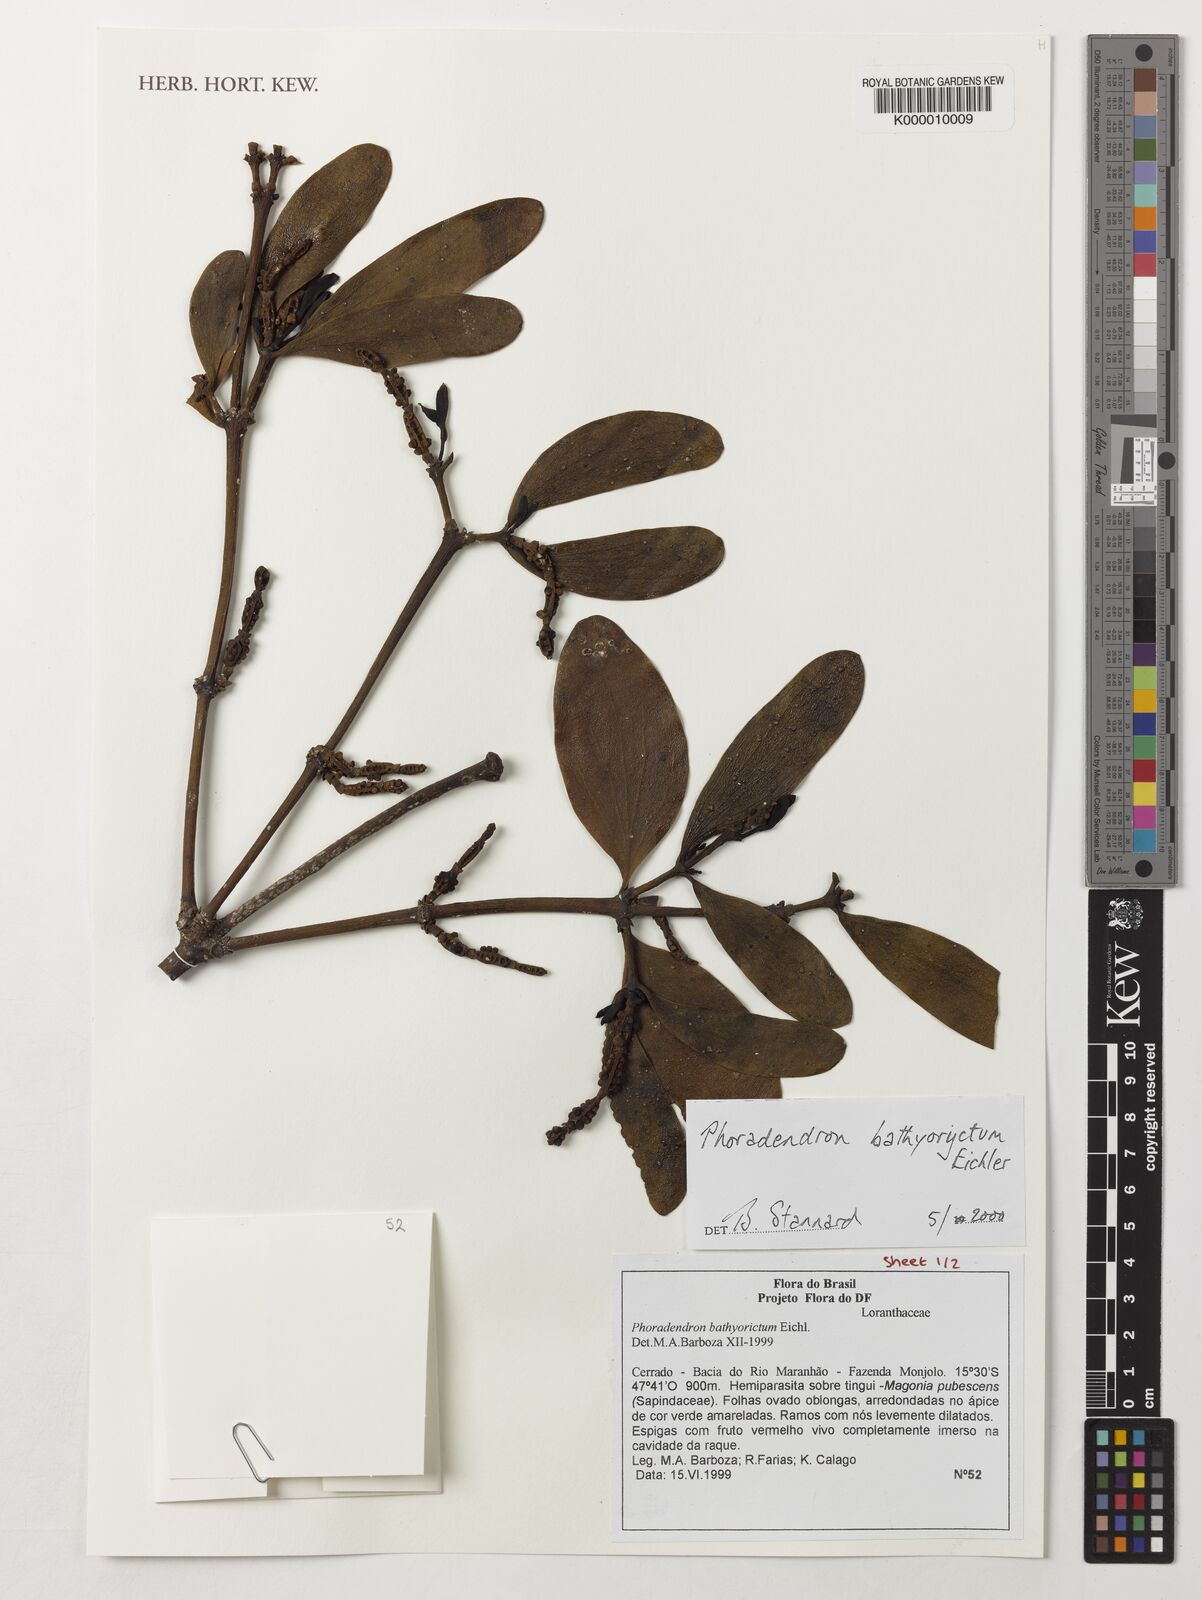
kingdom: Plantae
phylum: Tracheophyta
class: Magnoliopsida
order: Santalales
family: Viscaceae
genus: Phoradendron
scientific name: Phoradendron bathyoryctum
